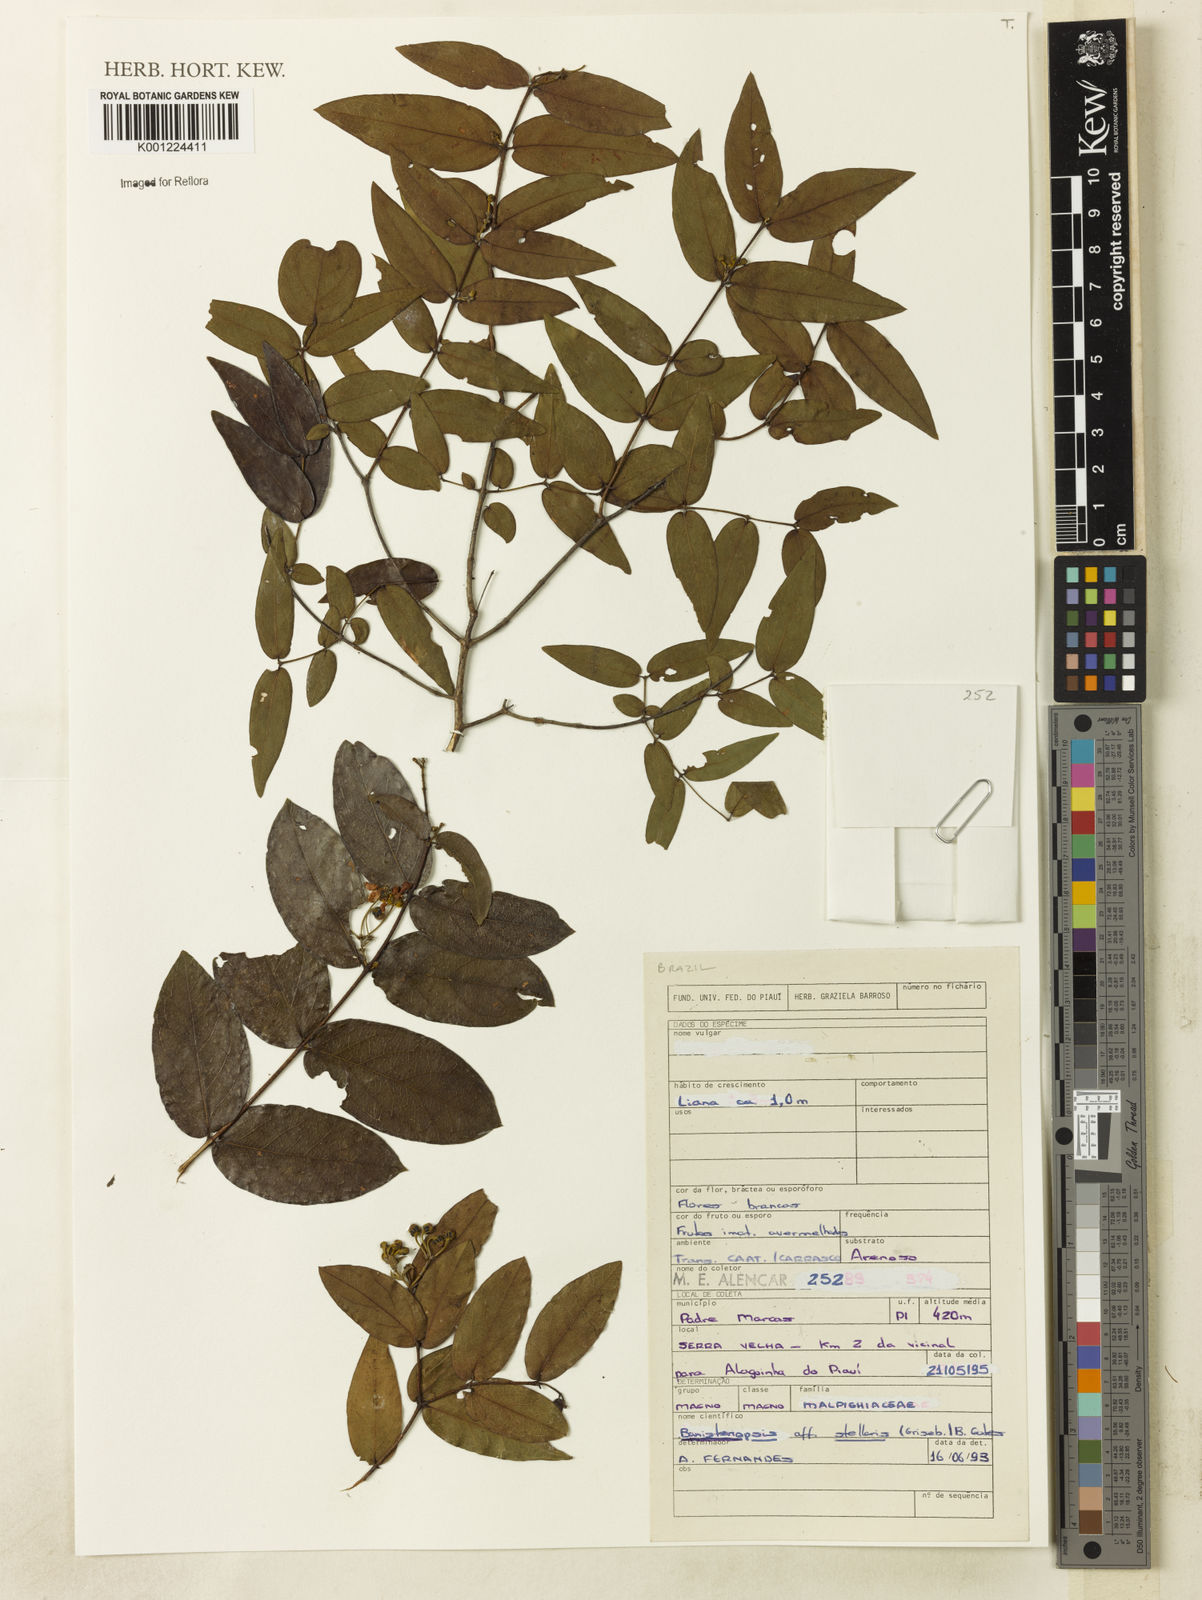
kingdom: Plantae
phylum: Tracheophyta
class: Magnoliopsida
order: Malpighiales
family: Malpighiaceae
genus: Banisteriopsis
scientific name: Banisteriopsis stellaris
